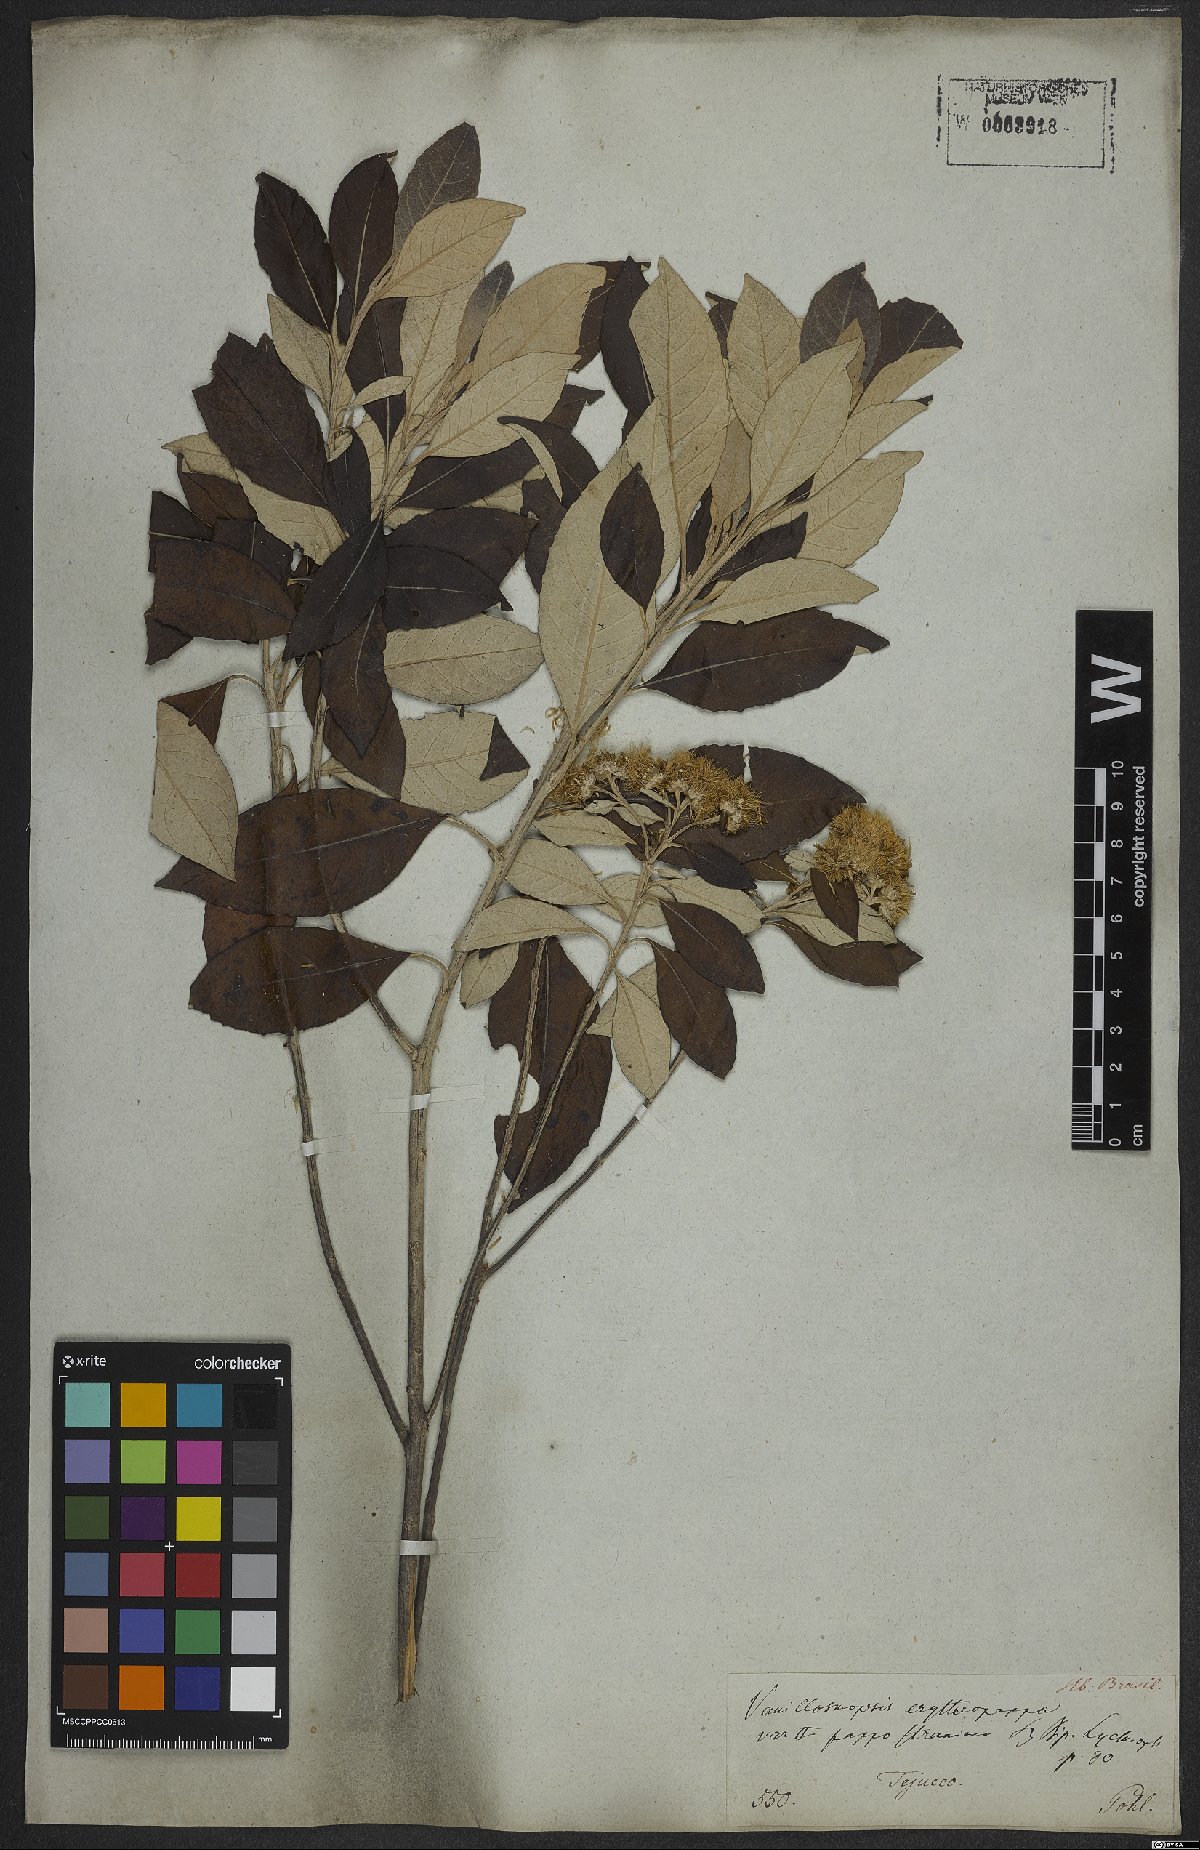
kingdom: Plantae
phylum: Tracheophyta
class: Magnoliopsida
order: Asterales
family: Asteraceae
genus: Eremanthus
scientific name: Eremanthus erythropappus
